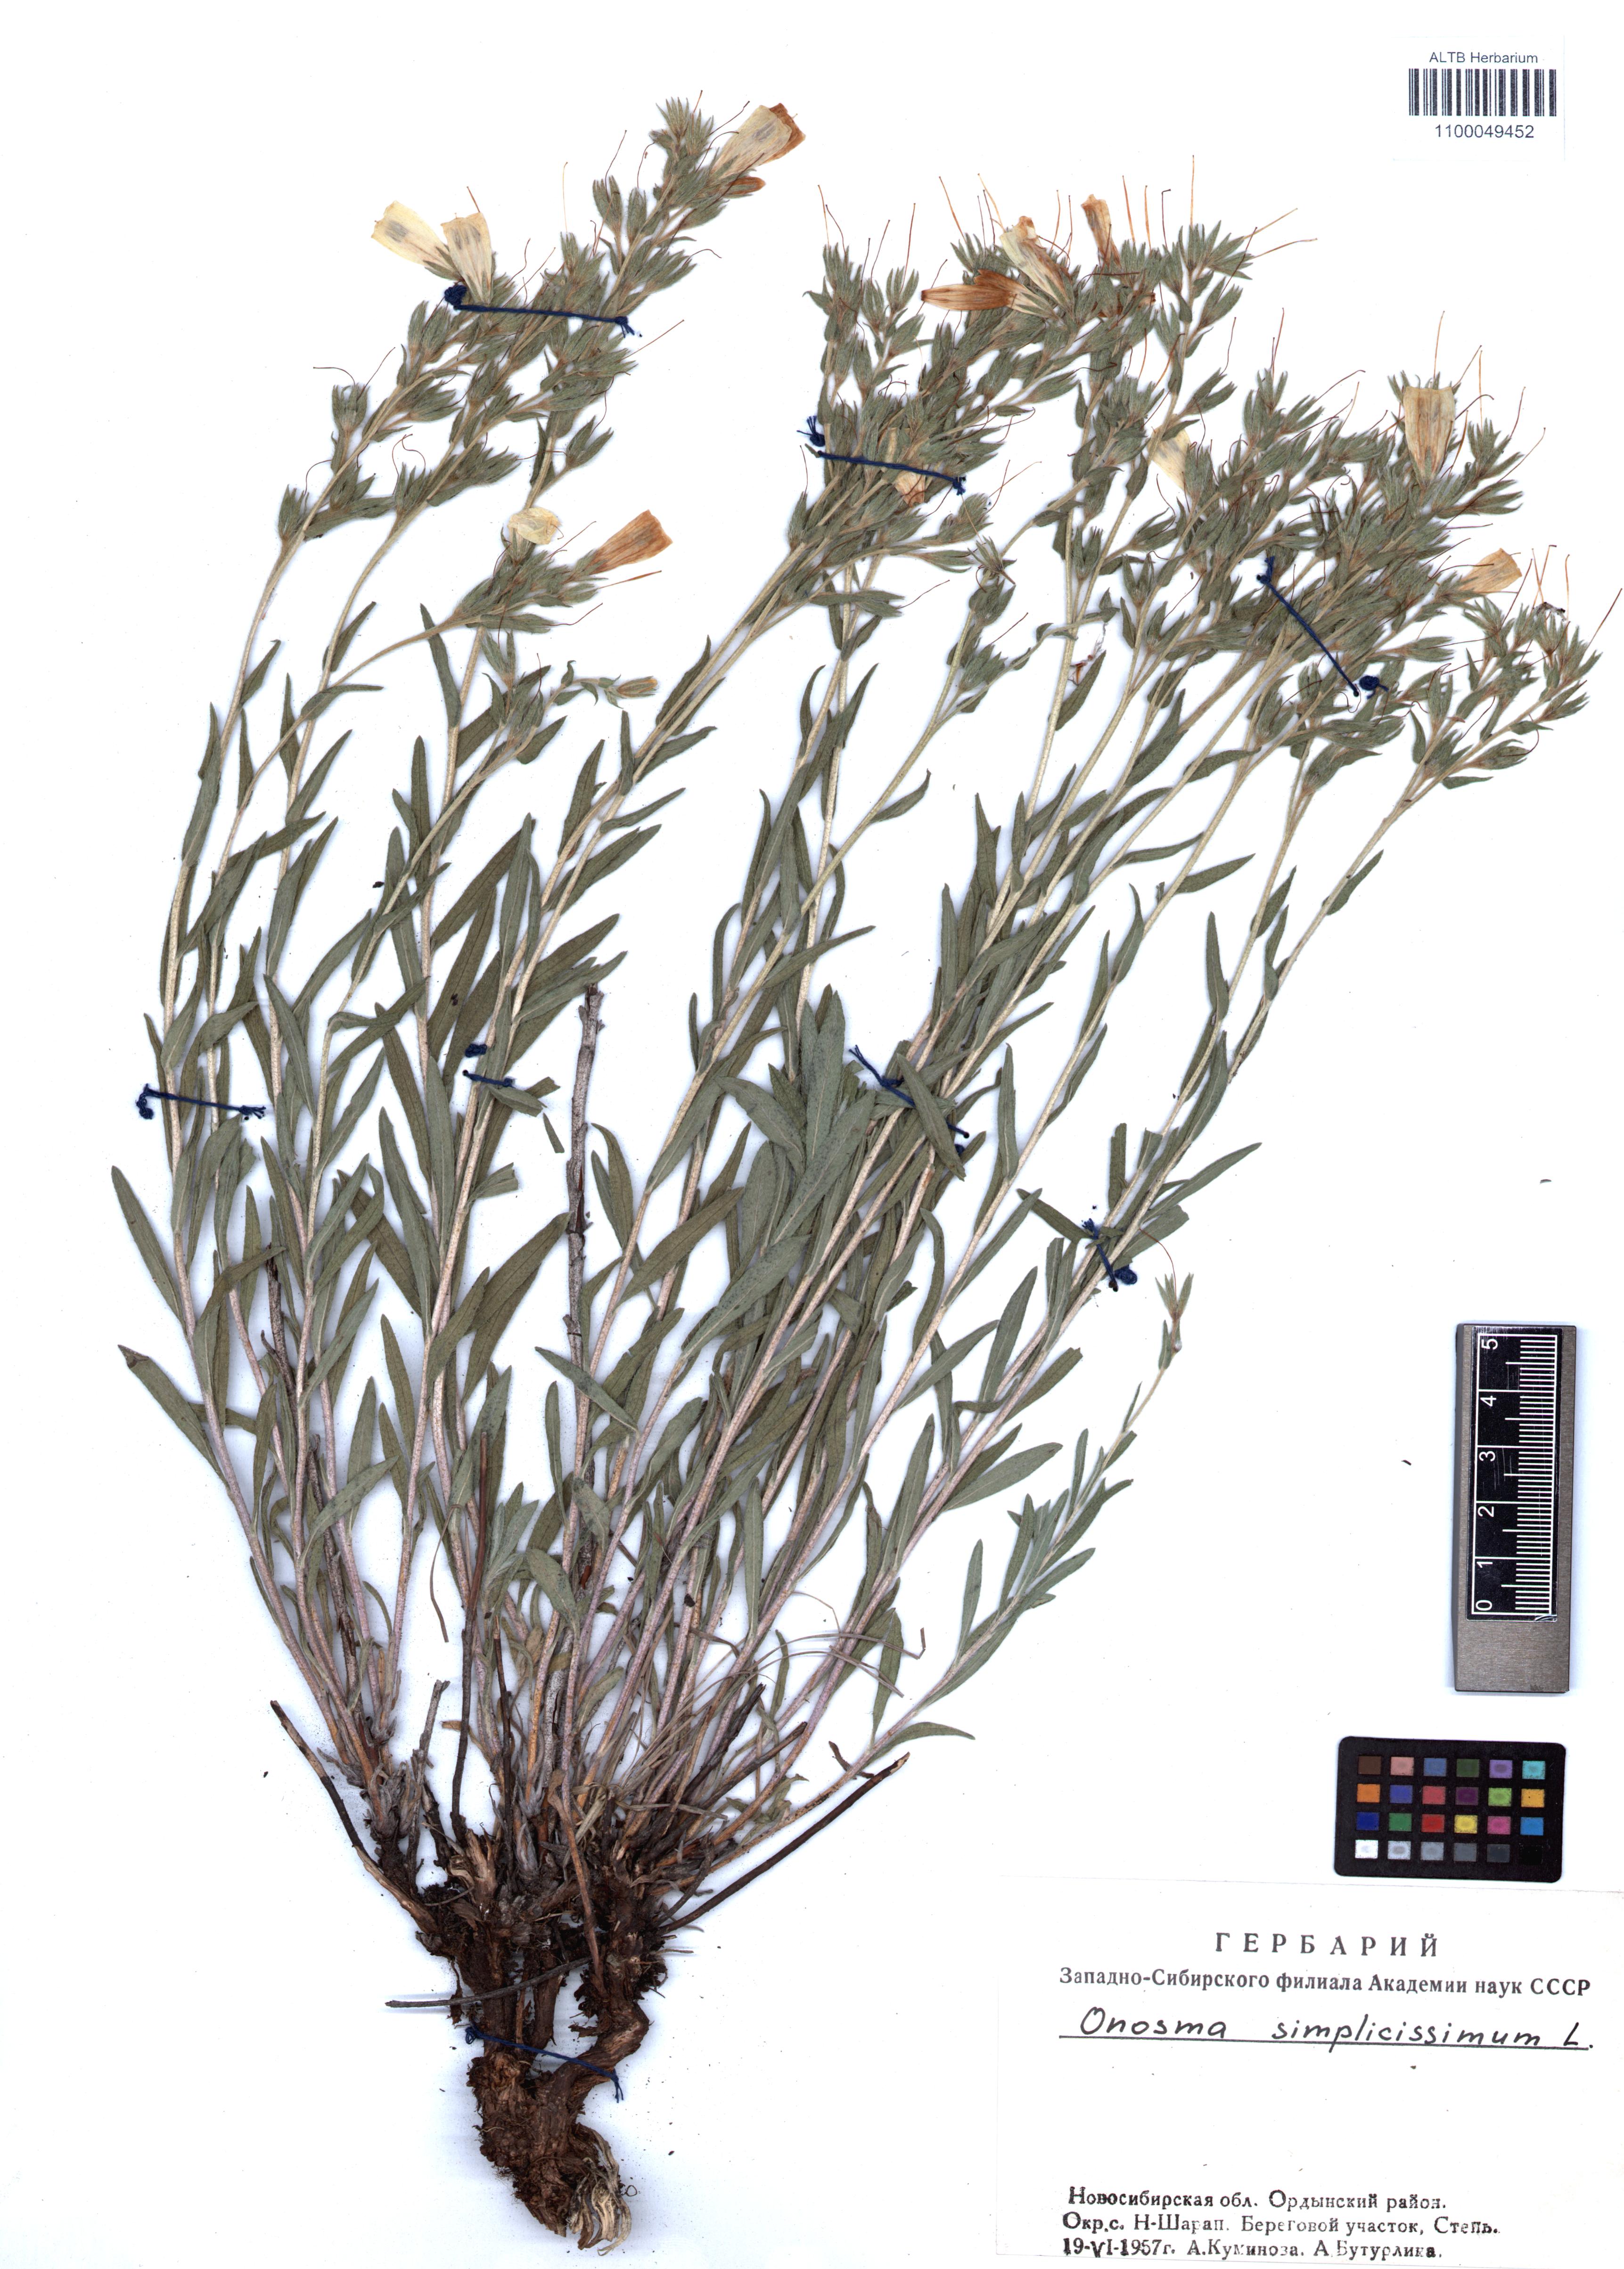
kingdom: Plantae
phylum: Tracheophyta
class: Magnoliopsida
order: Boraginales
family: Boraginaceae
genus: Onosma
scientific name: Onosma simplicissima
